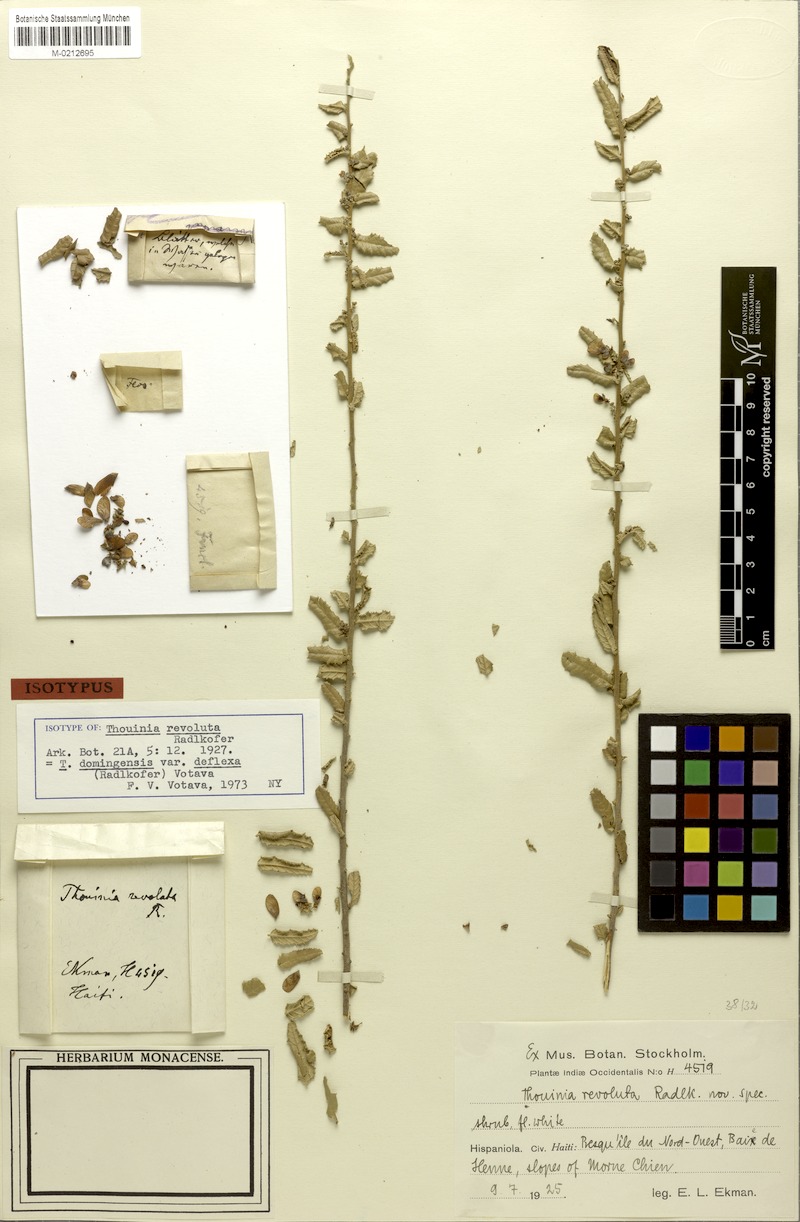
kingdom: Plantae
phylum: Tracheophyta
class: Magnoliopsida
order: Sapindales
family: Sapindaceae
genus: Thouinia
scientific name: Thouinia domingensis
